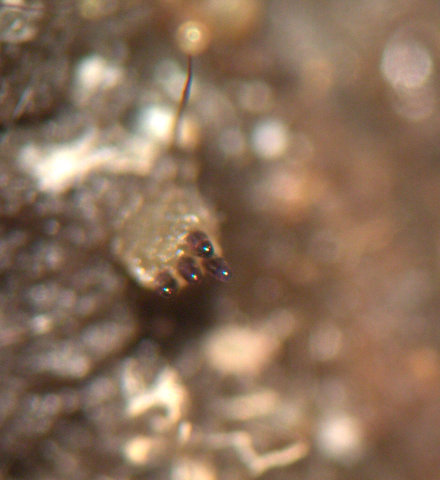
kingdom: Fungi
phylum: Ascomycota
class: Pezizomycetes
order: Pezizales
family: Ascobolaceae
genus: Ascobolus
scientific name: Ascobolus immersus
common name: storsporet prikbæger
